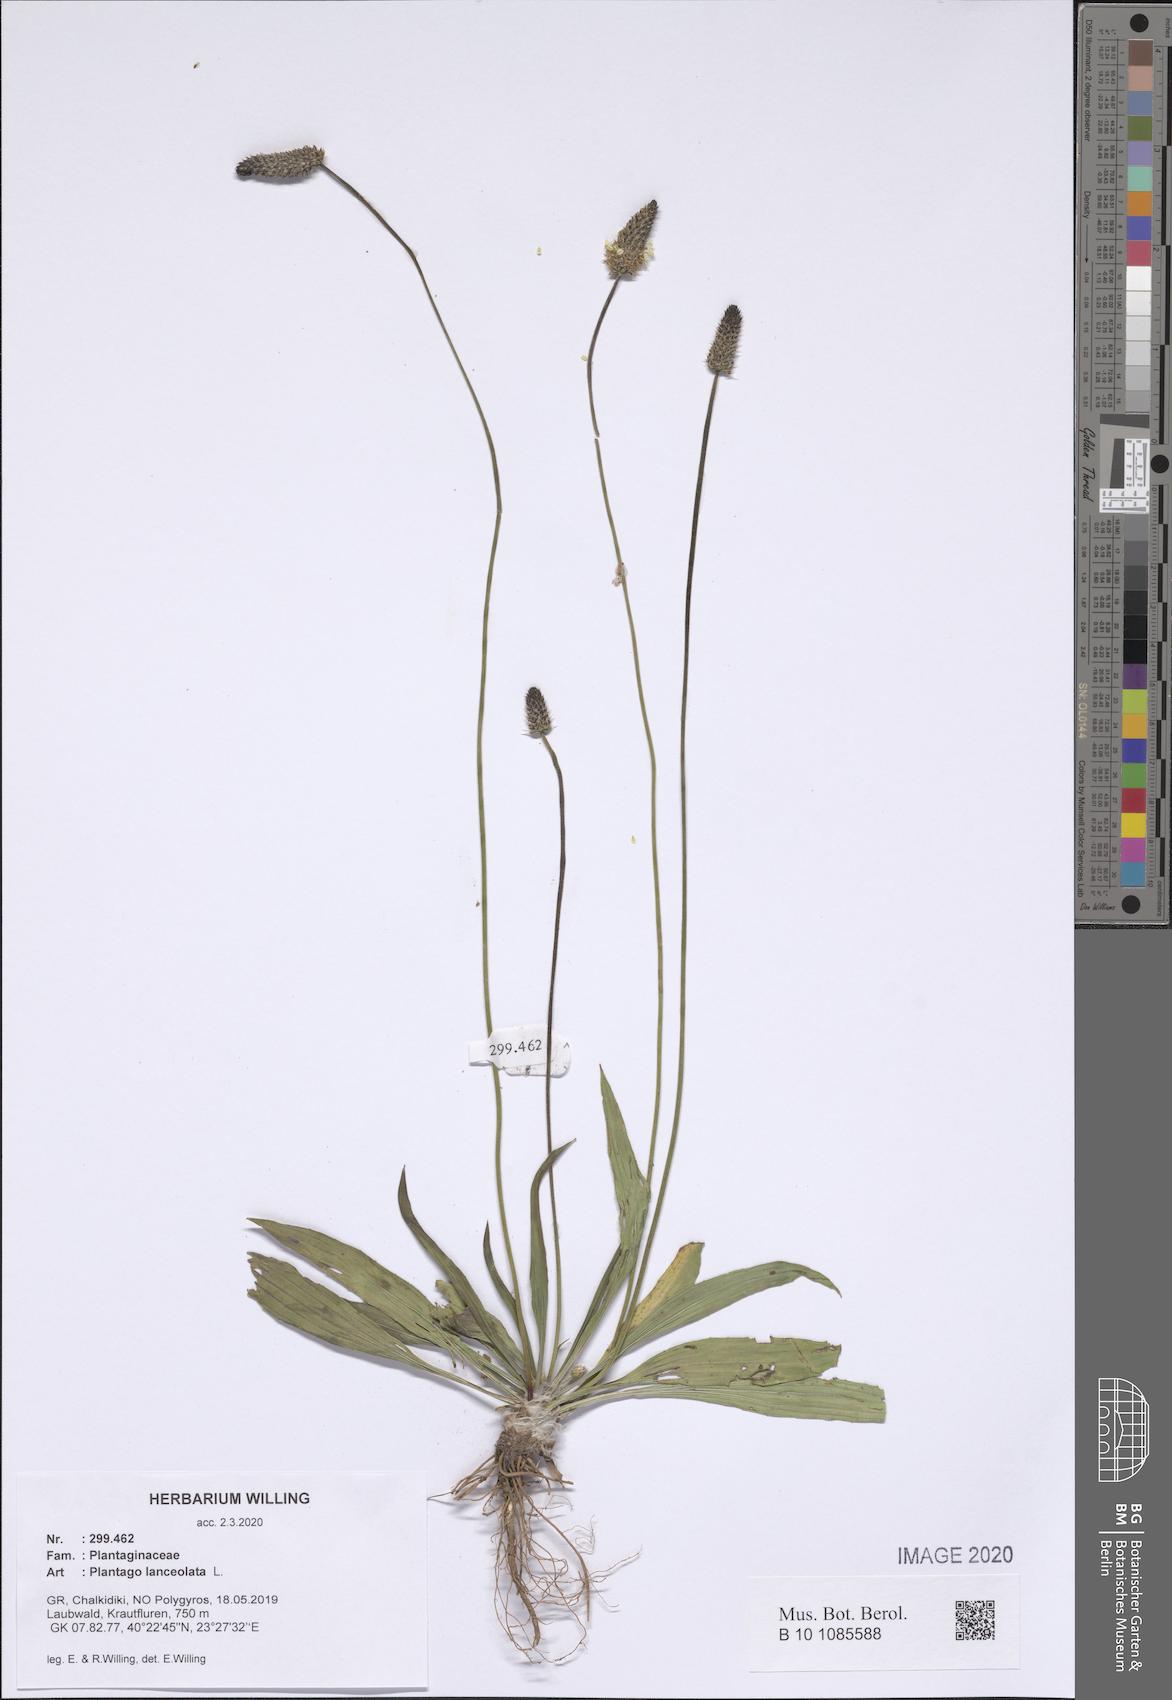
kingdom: Plantae
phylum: Tracheophyta
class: Magnoliopsida
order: Lamiales
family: Plantaginaceae
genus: Plantago
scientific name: Plantago lanceolata
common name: Ribwort plantain
